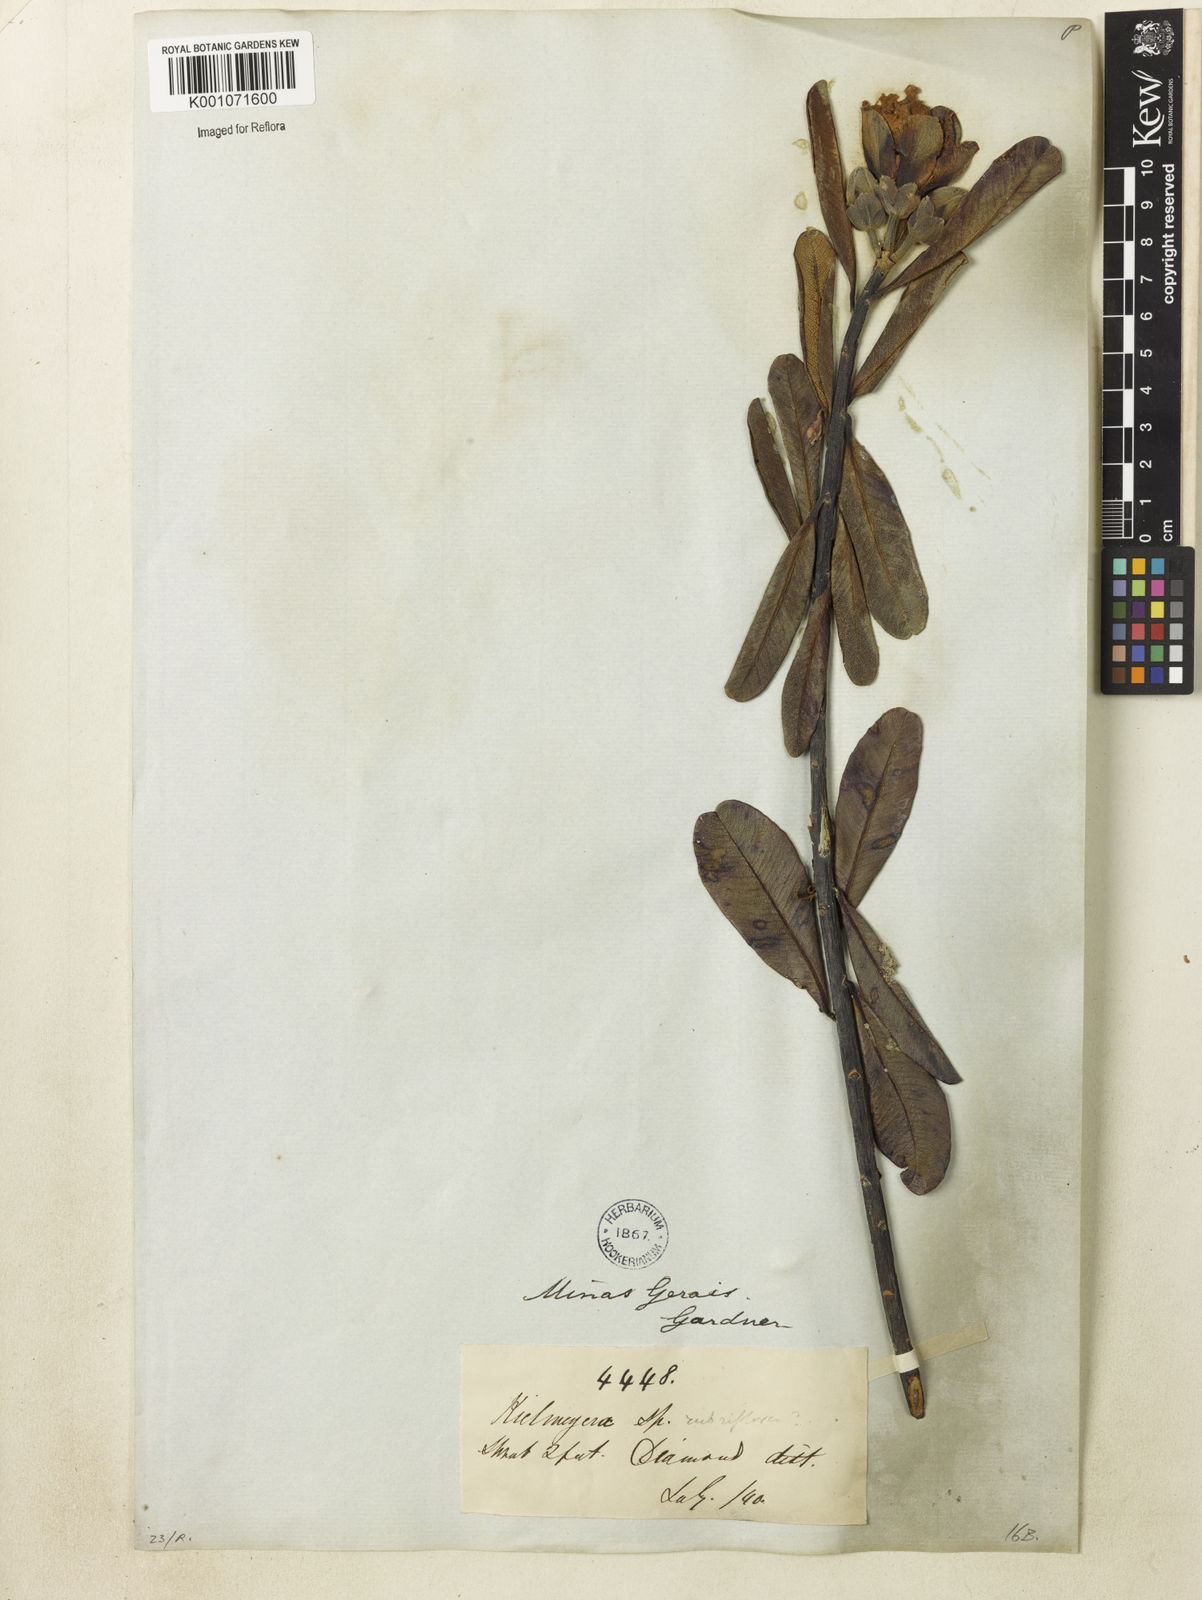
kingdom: Plantae
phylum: Tracheophyta
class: Magnoliopsida
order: Malpighiales
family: Calophyllaceae
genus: Kielmeyera
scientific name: Kielmeyera rubriflora
